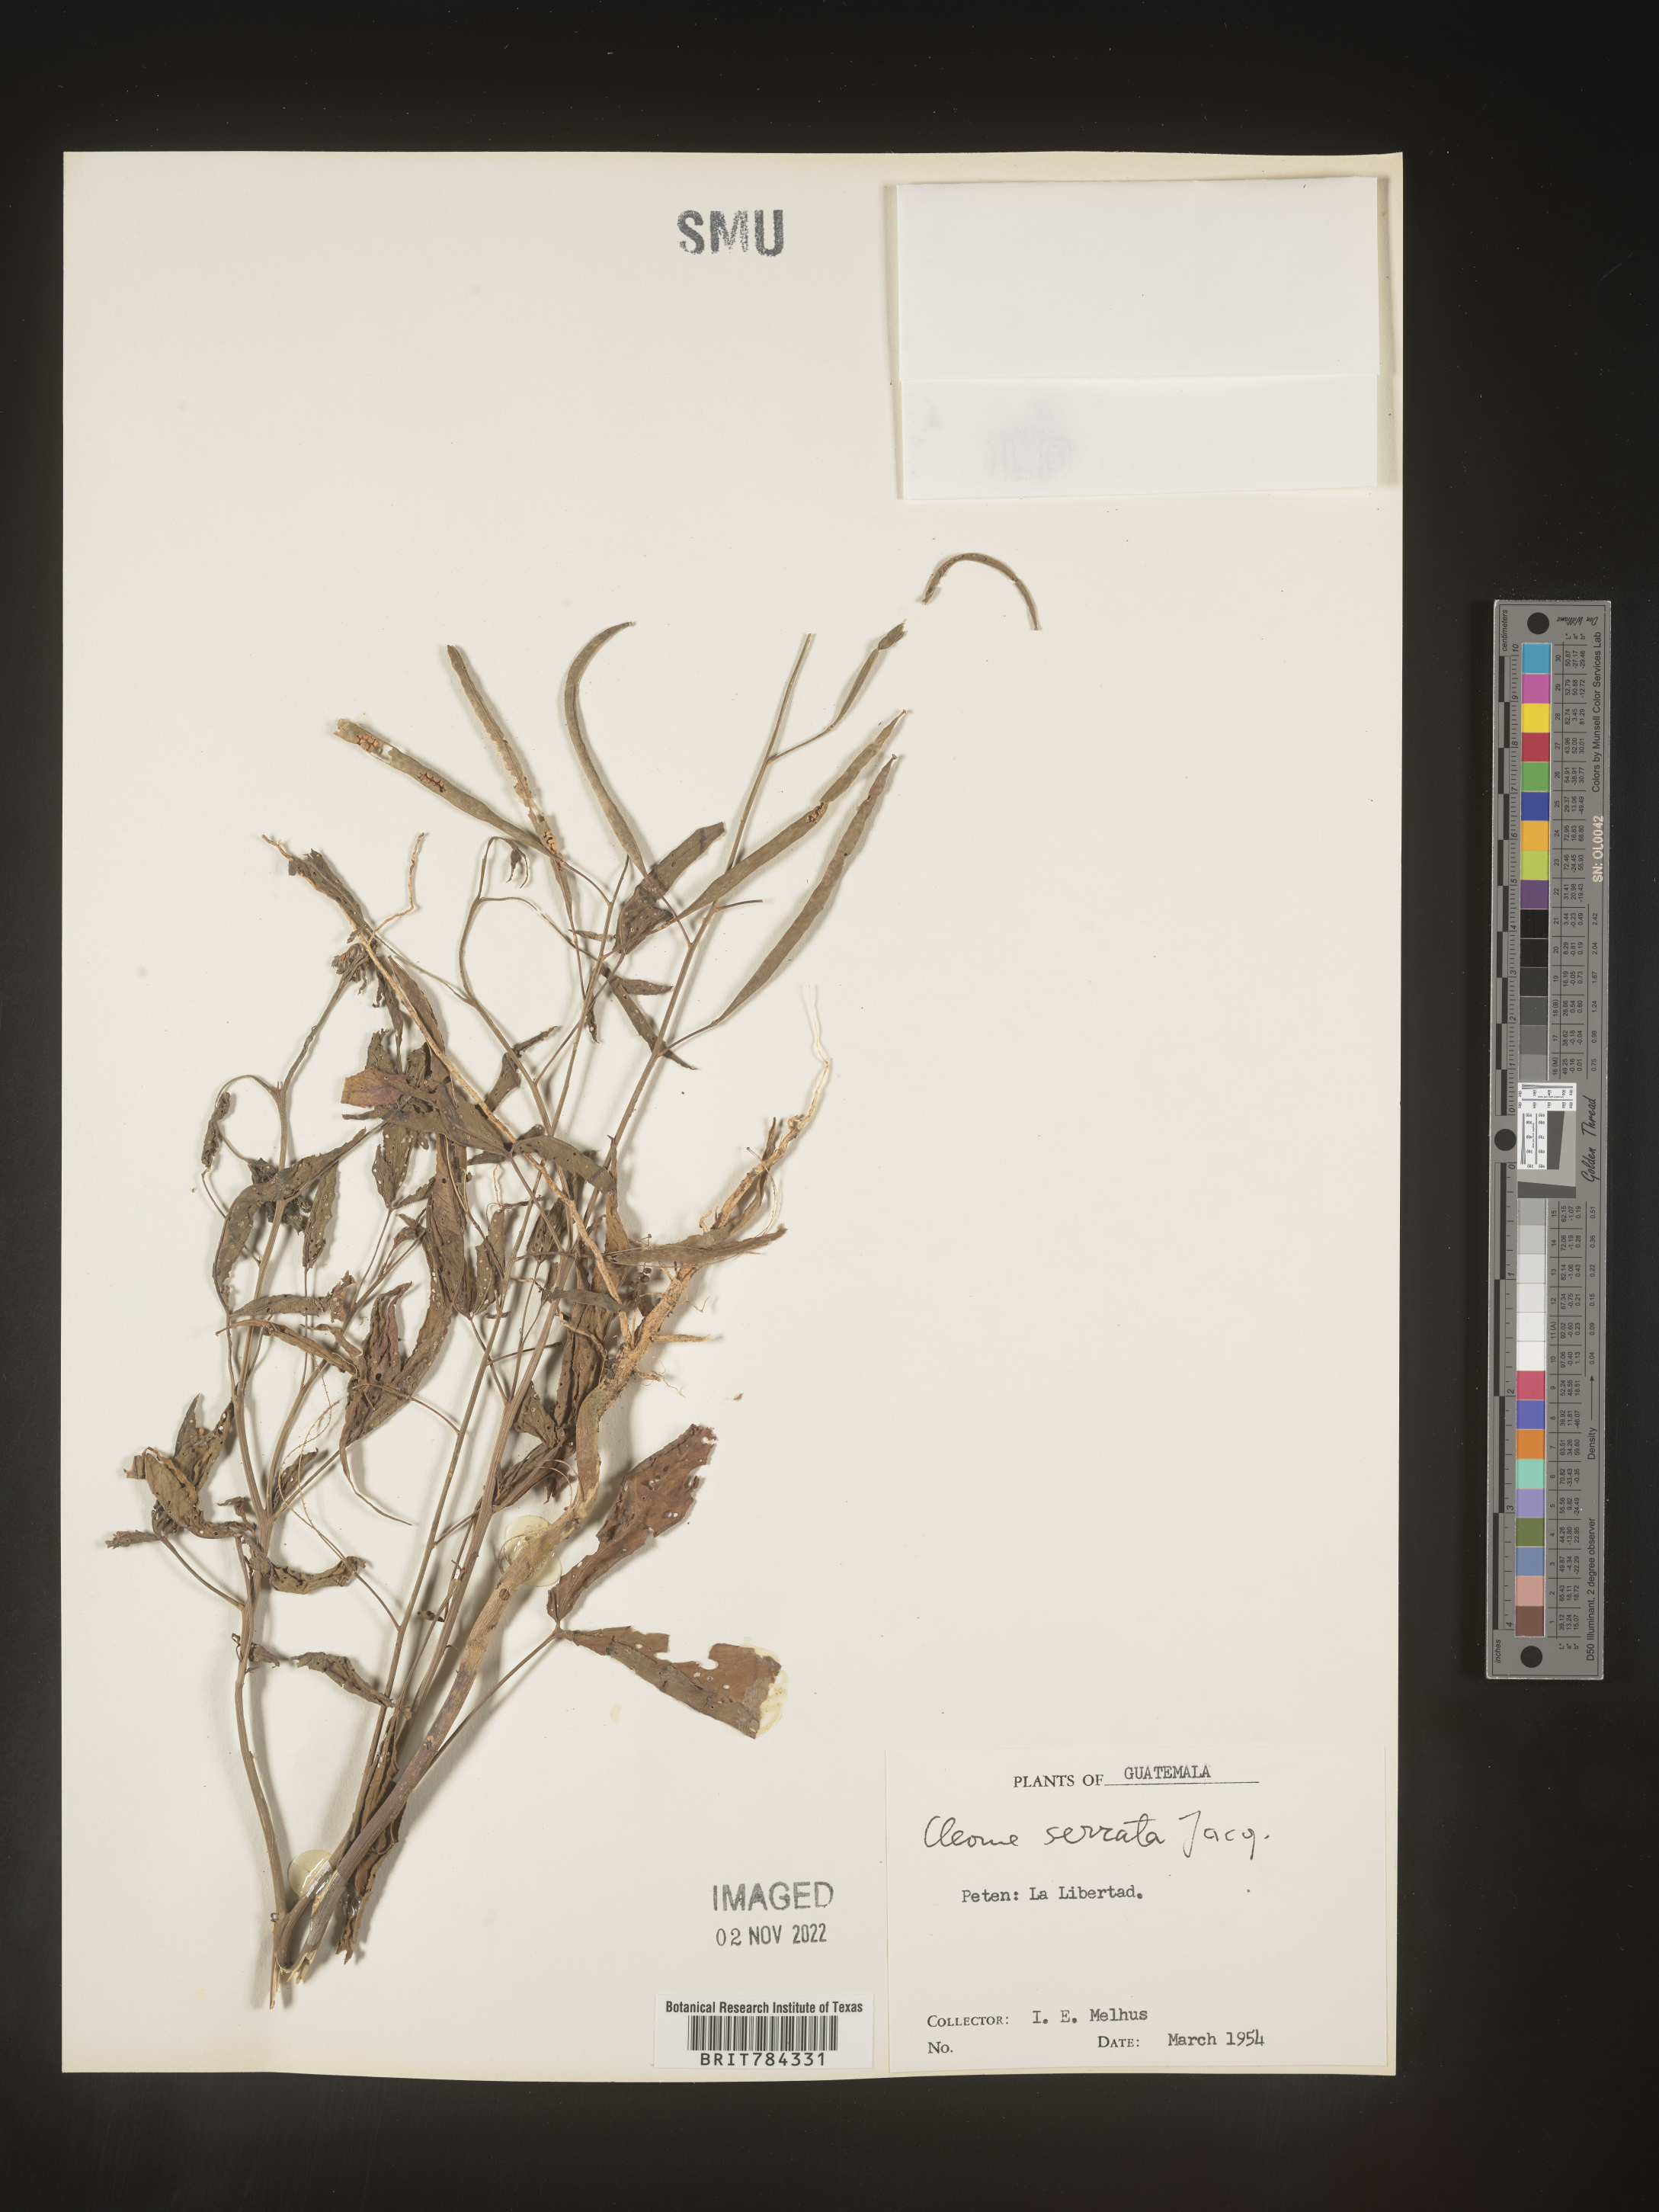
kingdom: Plantae
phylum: Tracheophyta
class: Magnoliopsida
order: Brassicales
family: Cleomaceae
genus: Cleome
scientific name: Cleome
